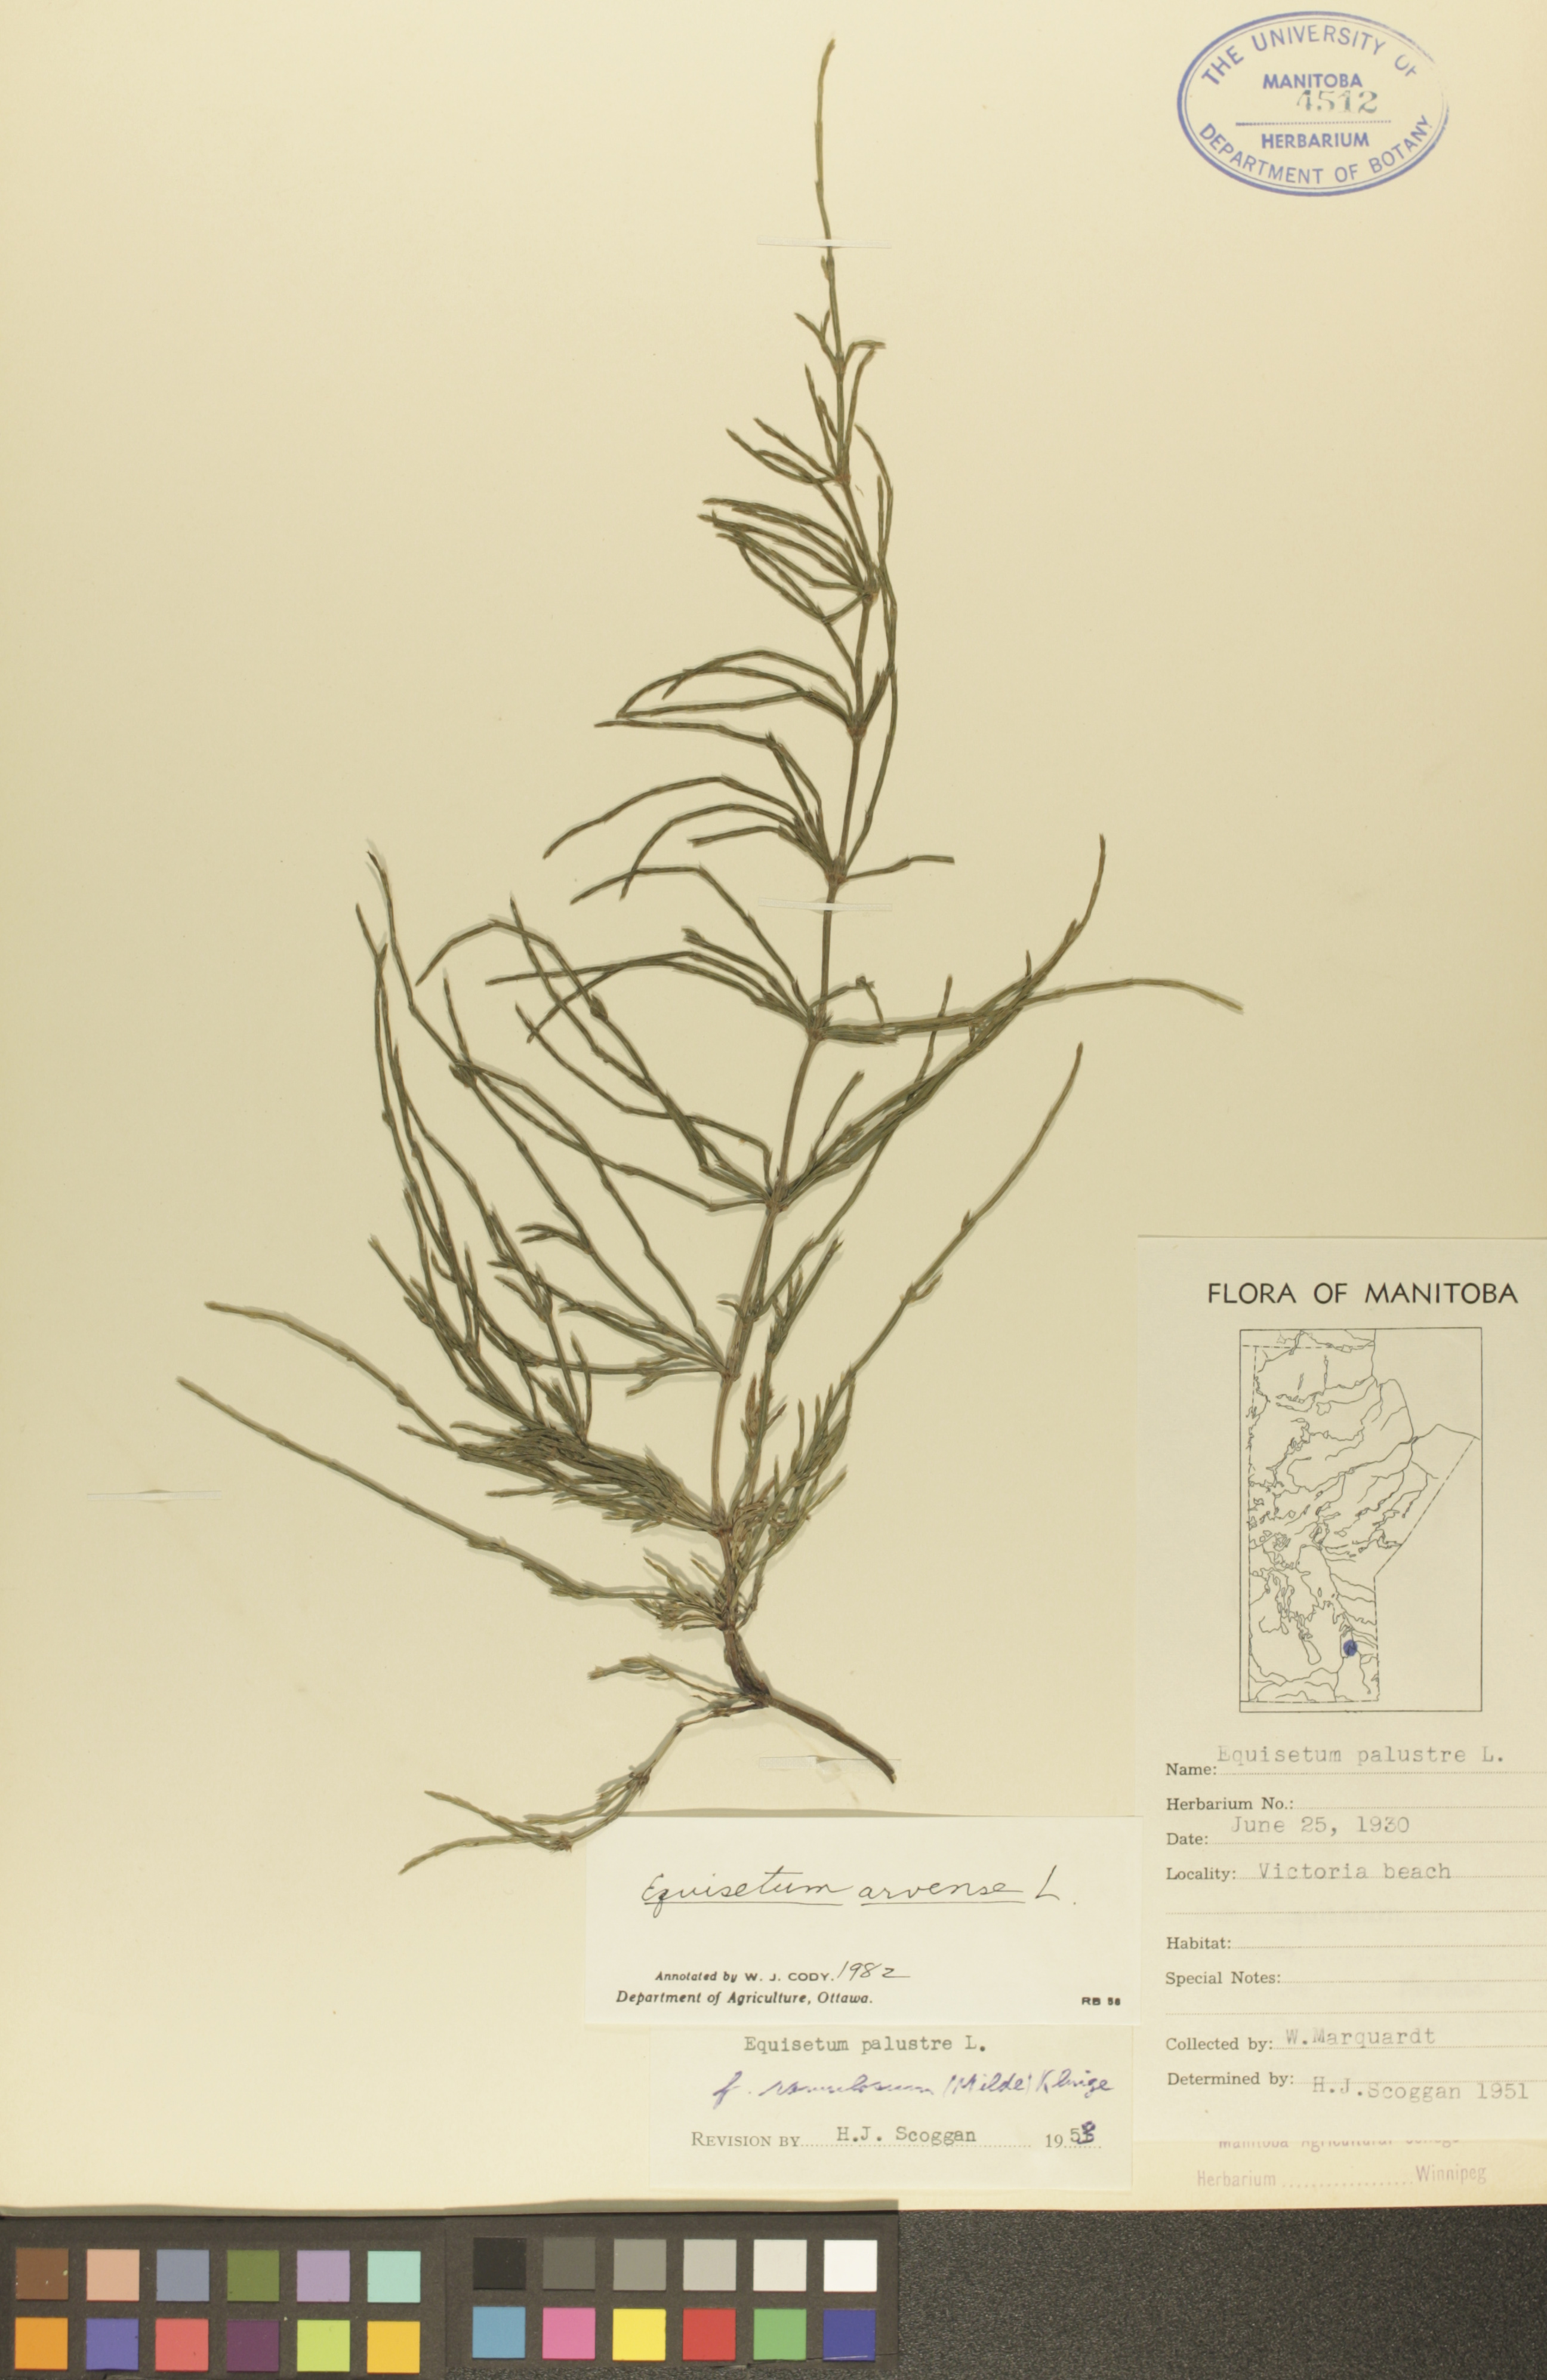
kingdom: Plantae
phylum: Tracheophyta
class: Polypodiopsida
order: Equisetales
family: Equisetaceae
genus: Equisetum
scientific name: Equisetum arvense
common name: Field horsetail
